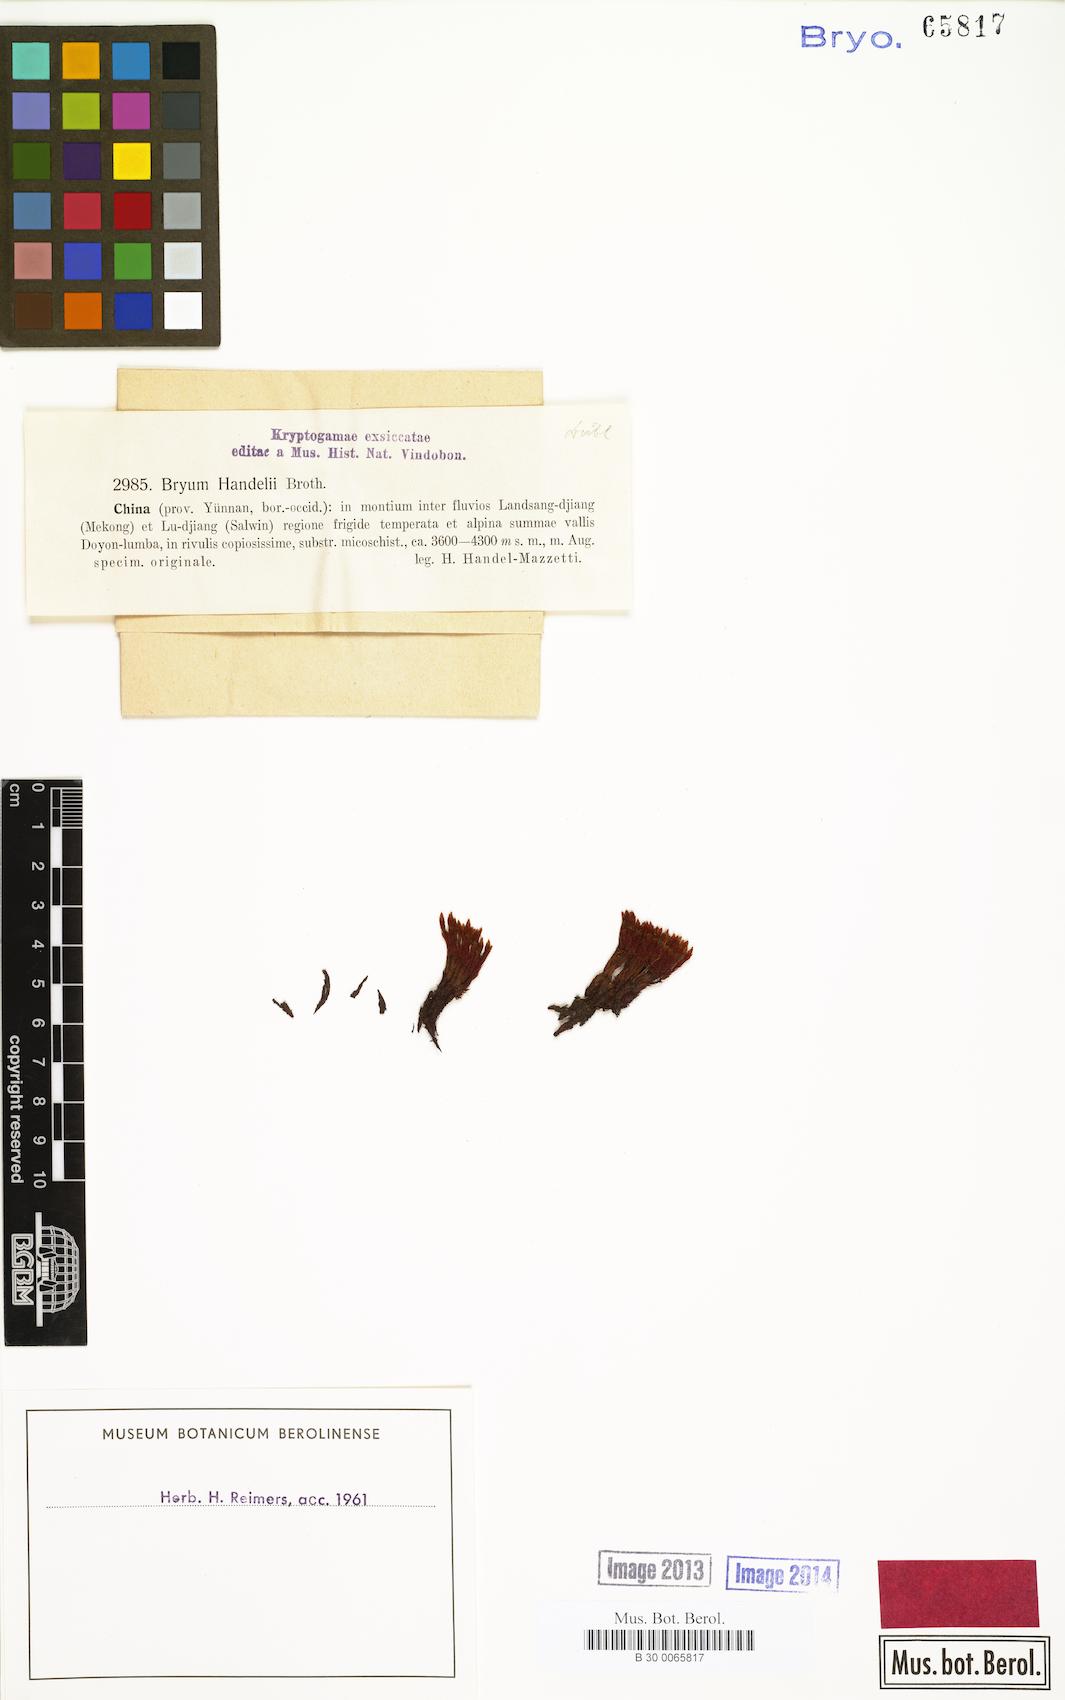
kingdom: Plantae
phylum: Bryophyta
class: Bryopsida
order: Bryales
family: Bryaceae
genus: Ochiobryum
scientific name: Ochiobryum handelii
